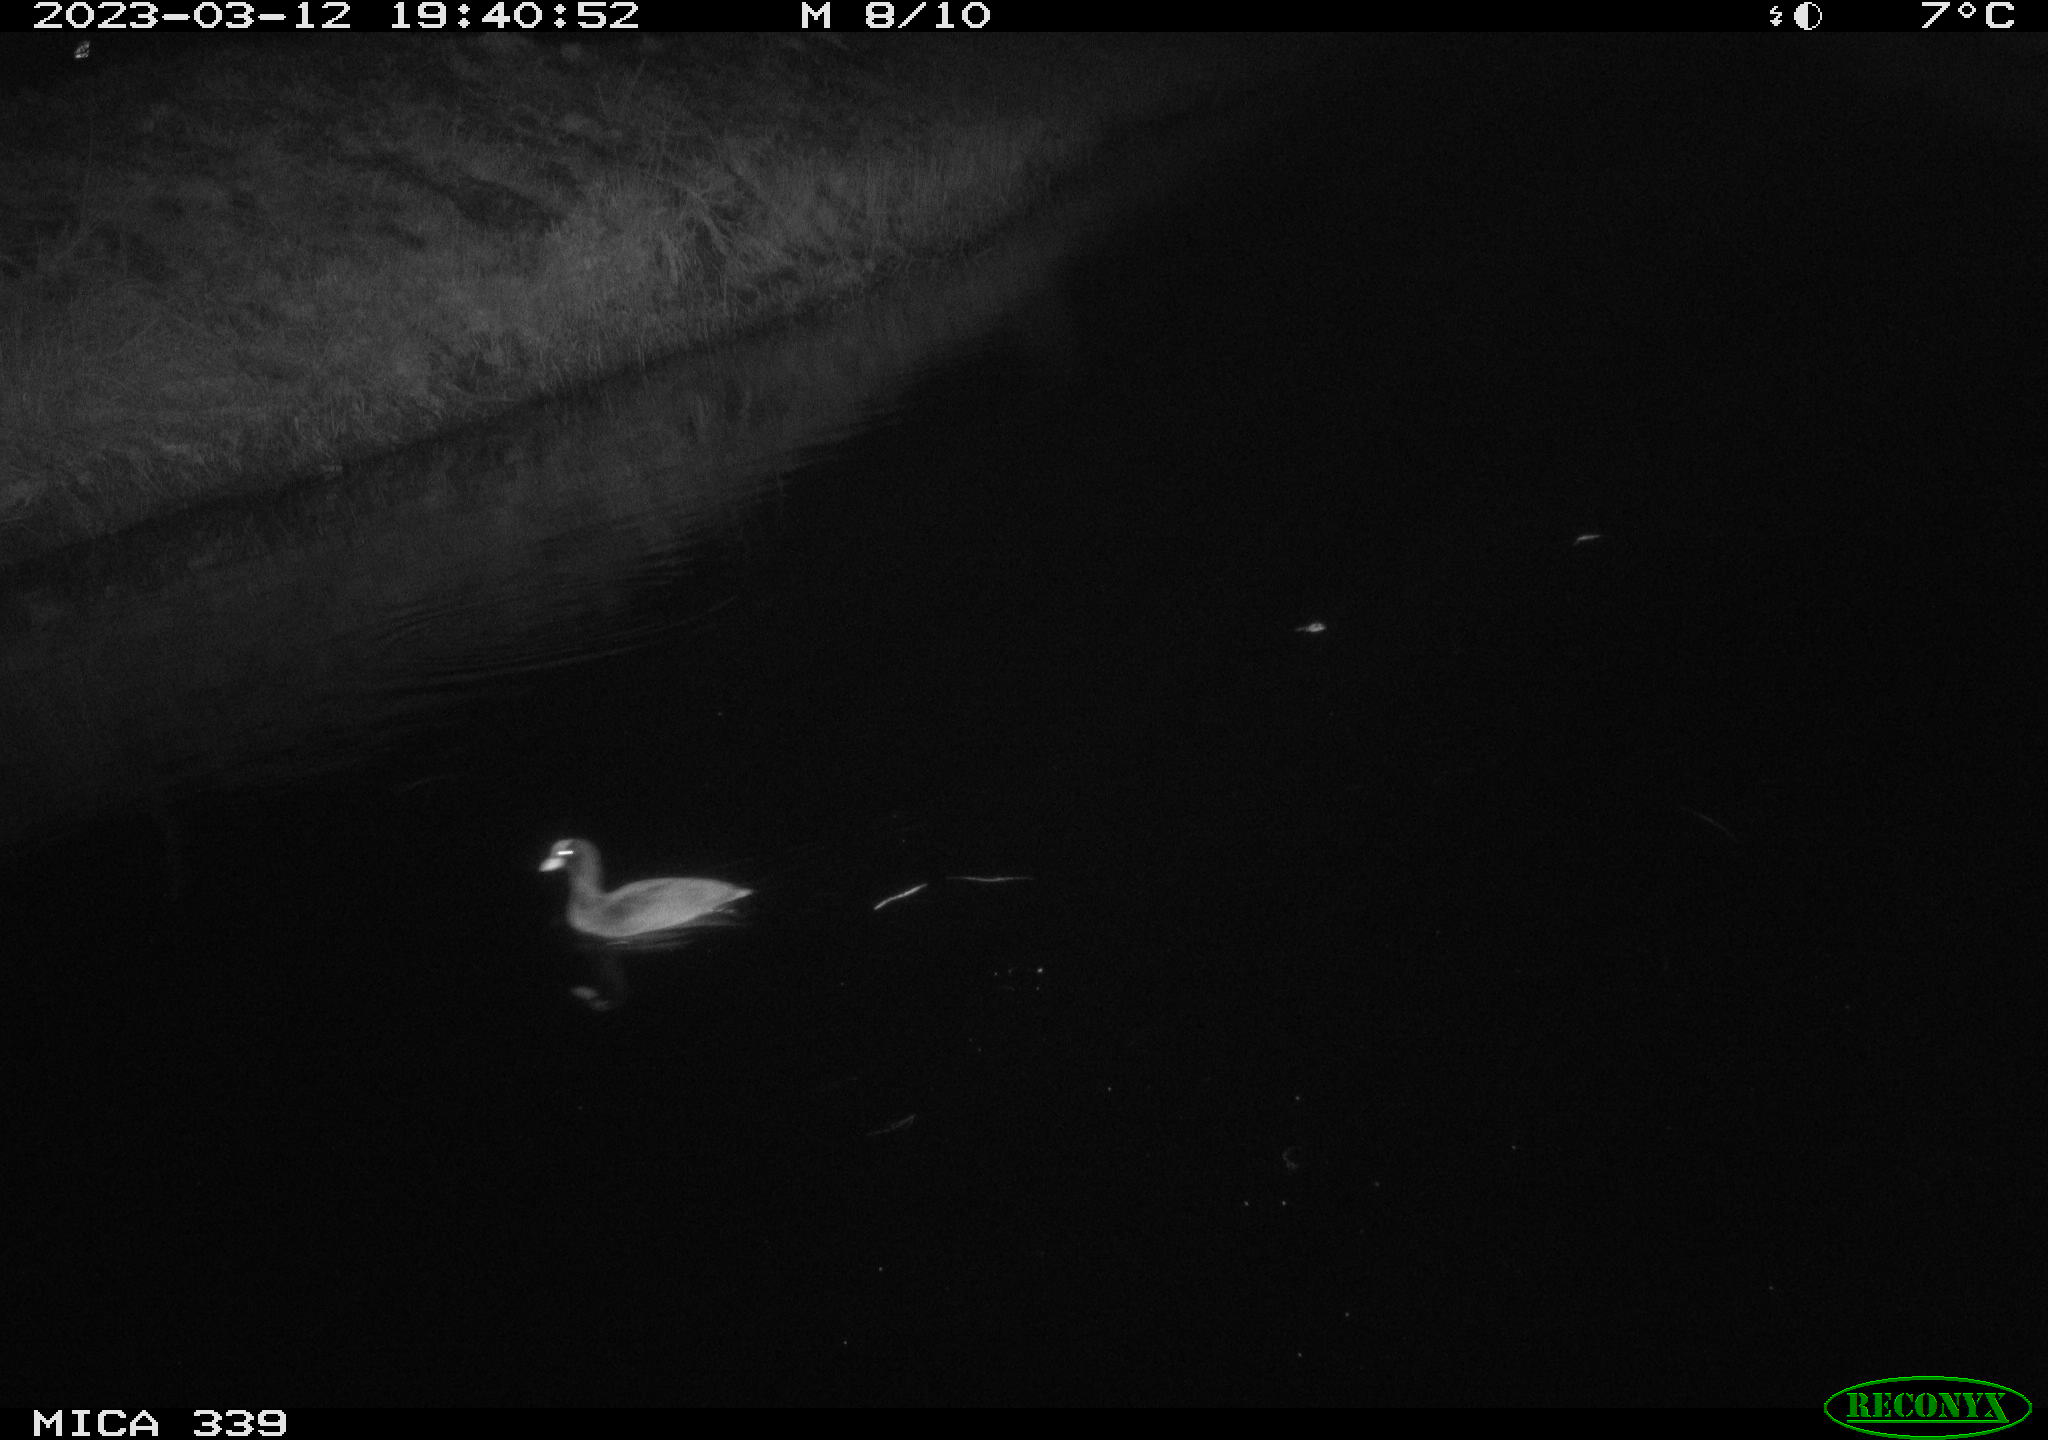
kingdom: Animalia
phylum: Chordata
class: Aves
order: Gruiformes
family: Rallidae
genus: Fulica
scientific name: Fulica atra
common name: Eurasian coot
